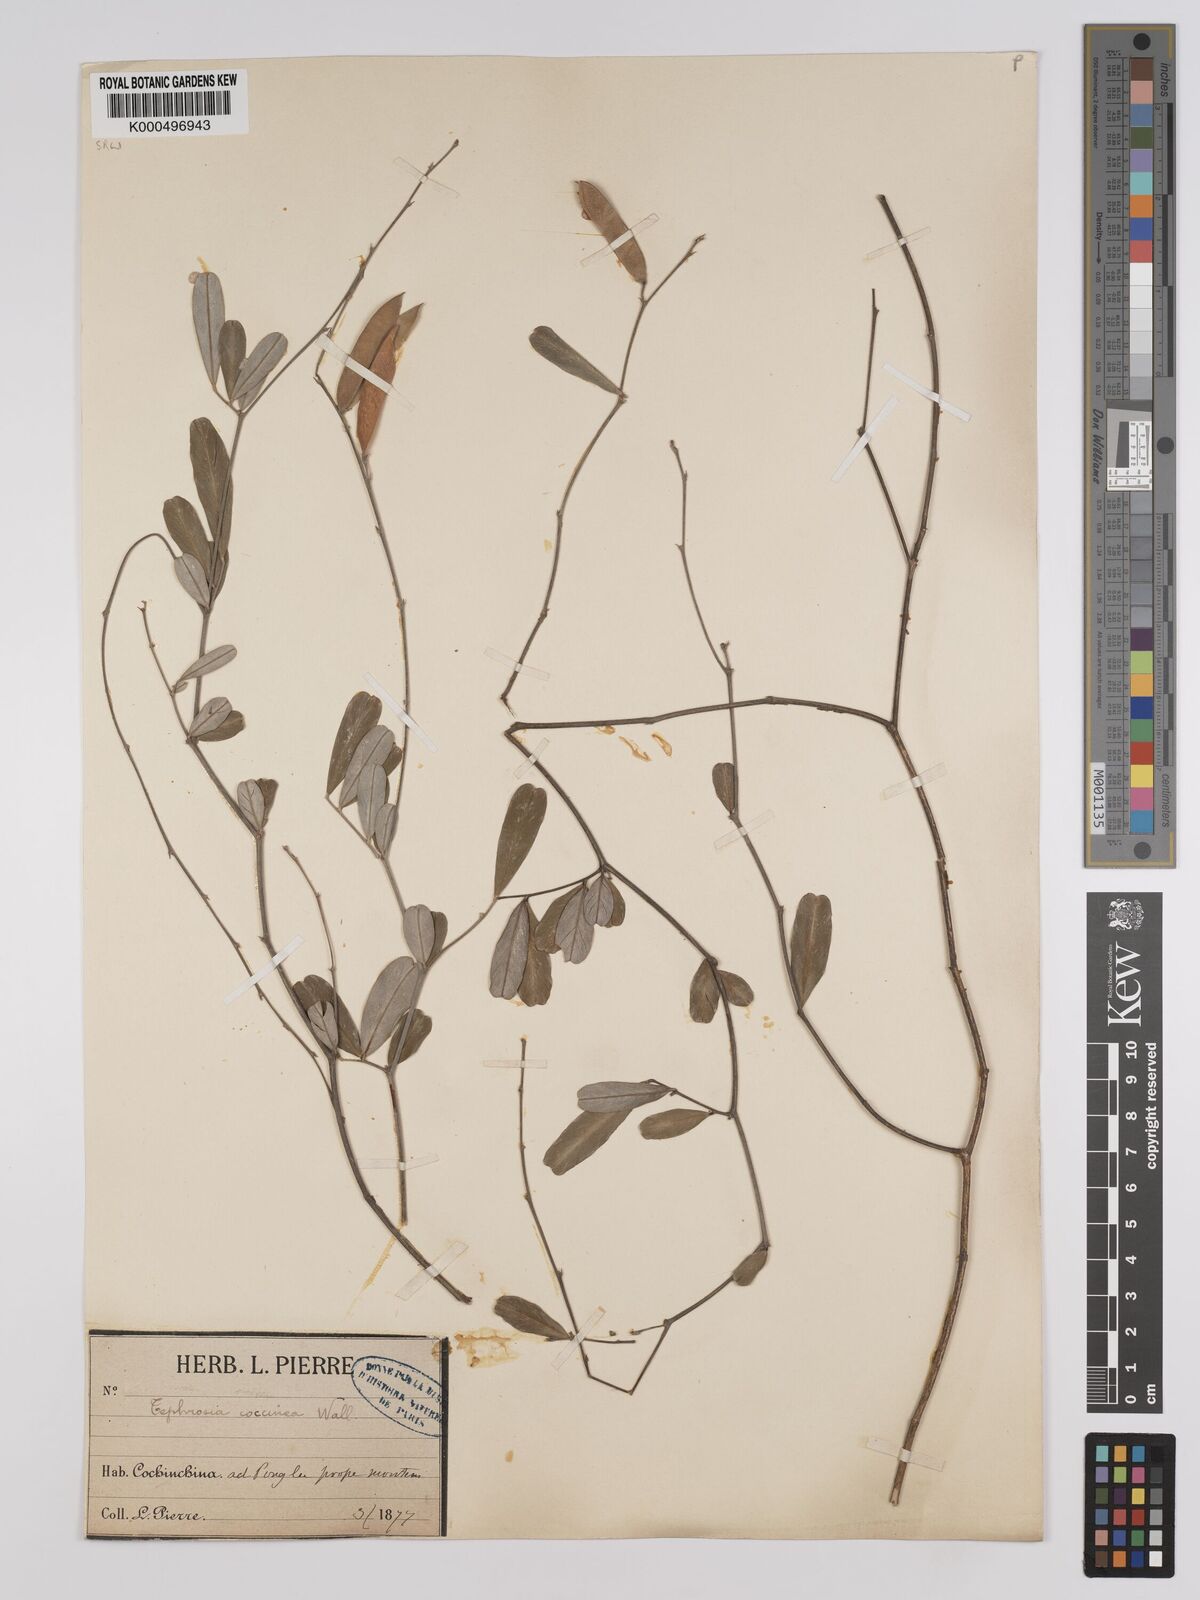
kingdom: Plantae
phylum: Tracheophyta
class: Magnoliopsida
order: Fabales
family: Fabaceae
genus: Tephrosia
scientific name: Tephrosia coccinea
